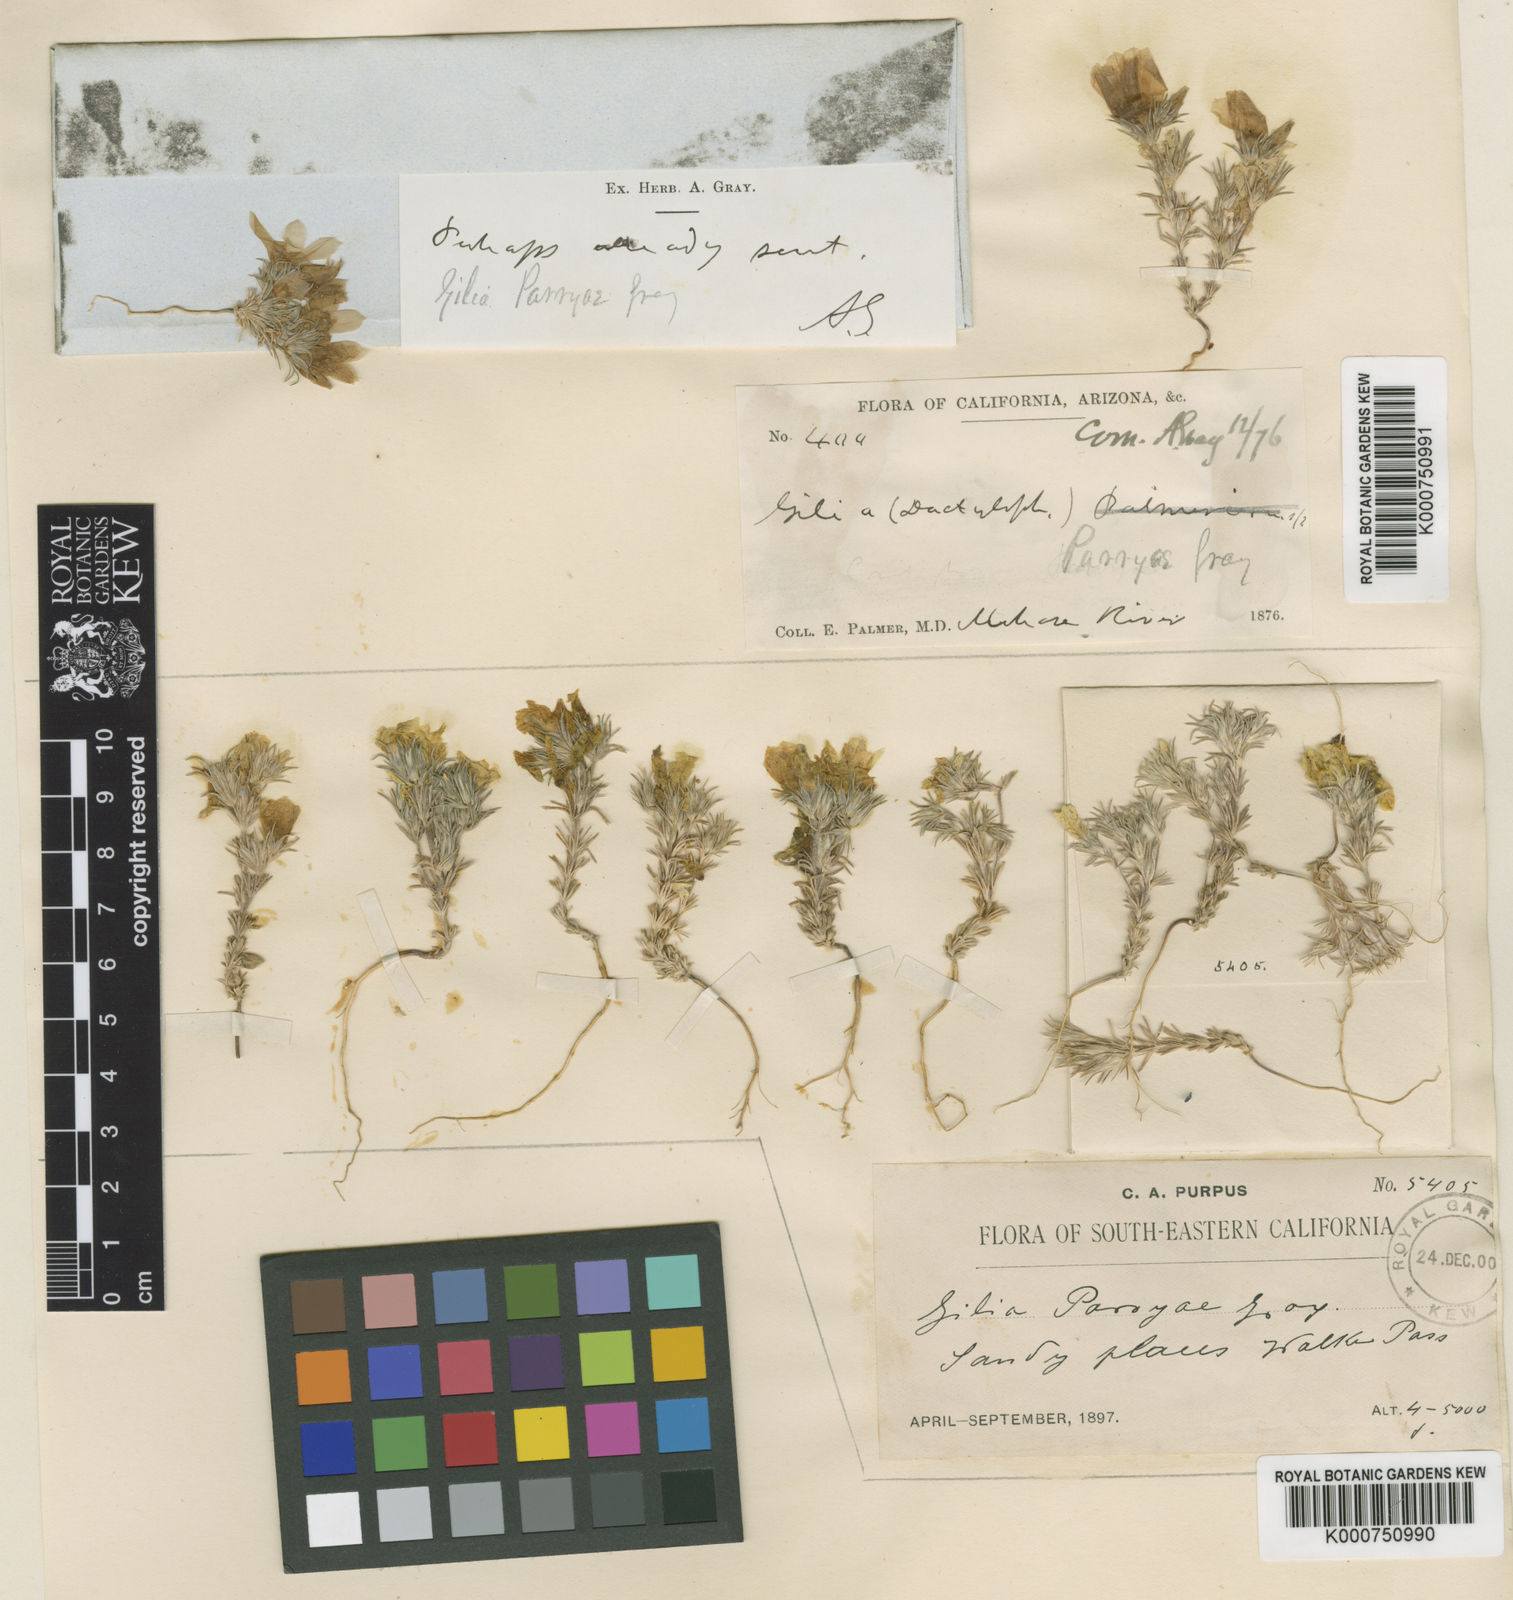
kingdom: Plantae
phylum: Tracheophyta
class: Magnoliopsida
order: Ericales
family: Polemoniaceae
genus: Linanthus
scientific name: Linanthus parryae
